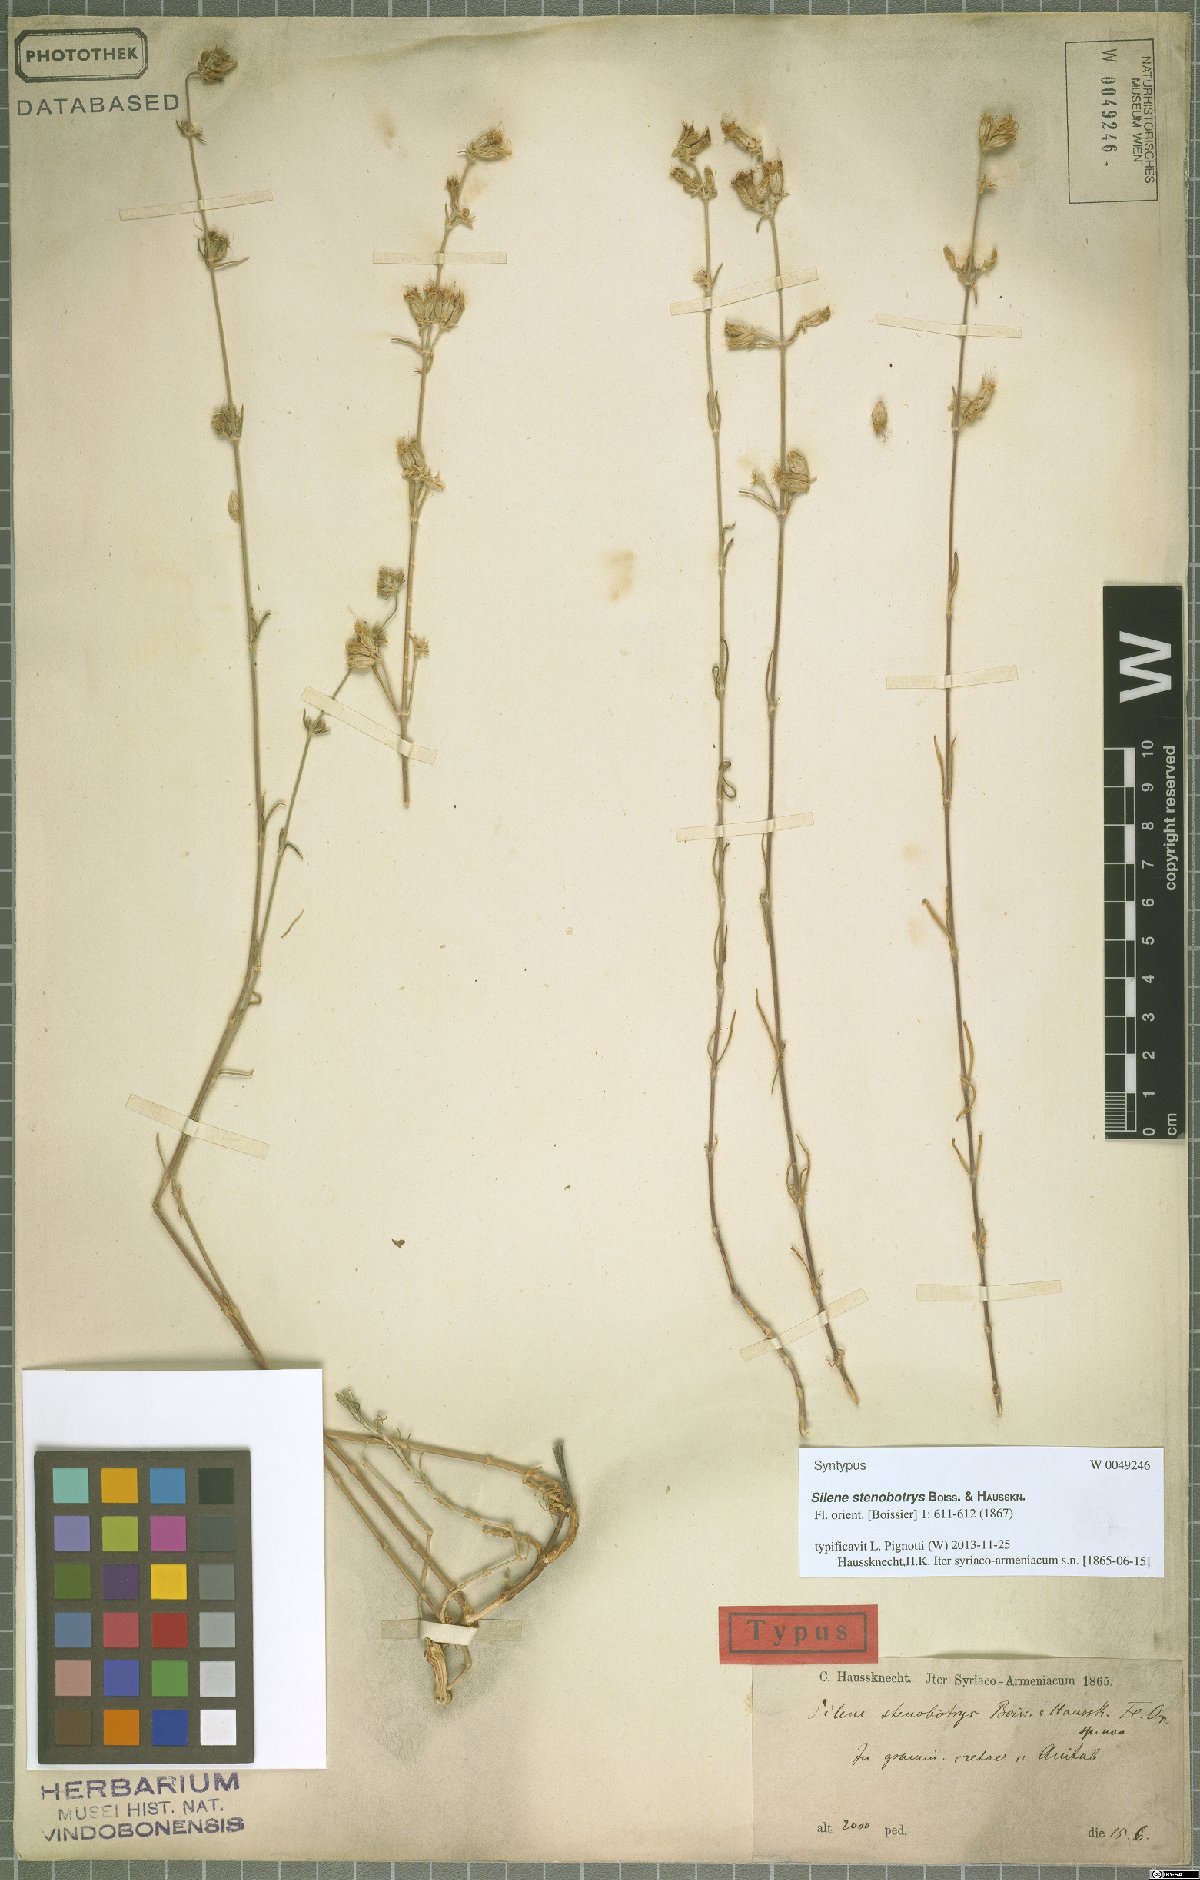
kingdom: Plantae
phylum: Tracheophyta
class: Magnoliopsida
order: Caryophyllales
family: Caryophyllaceae
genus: Silene
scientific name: Silene stenobotrys
